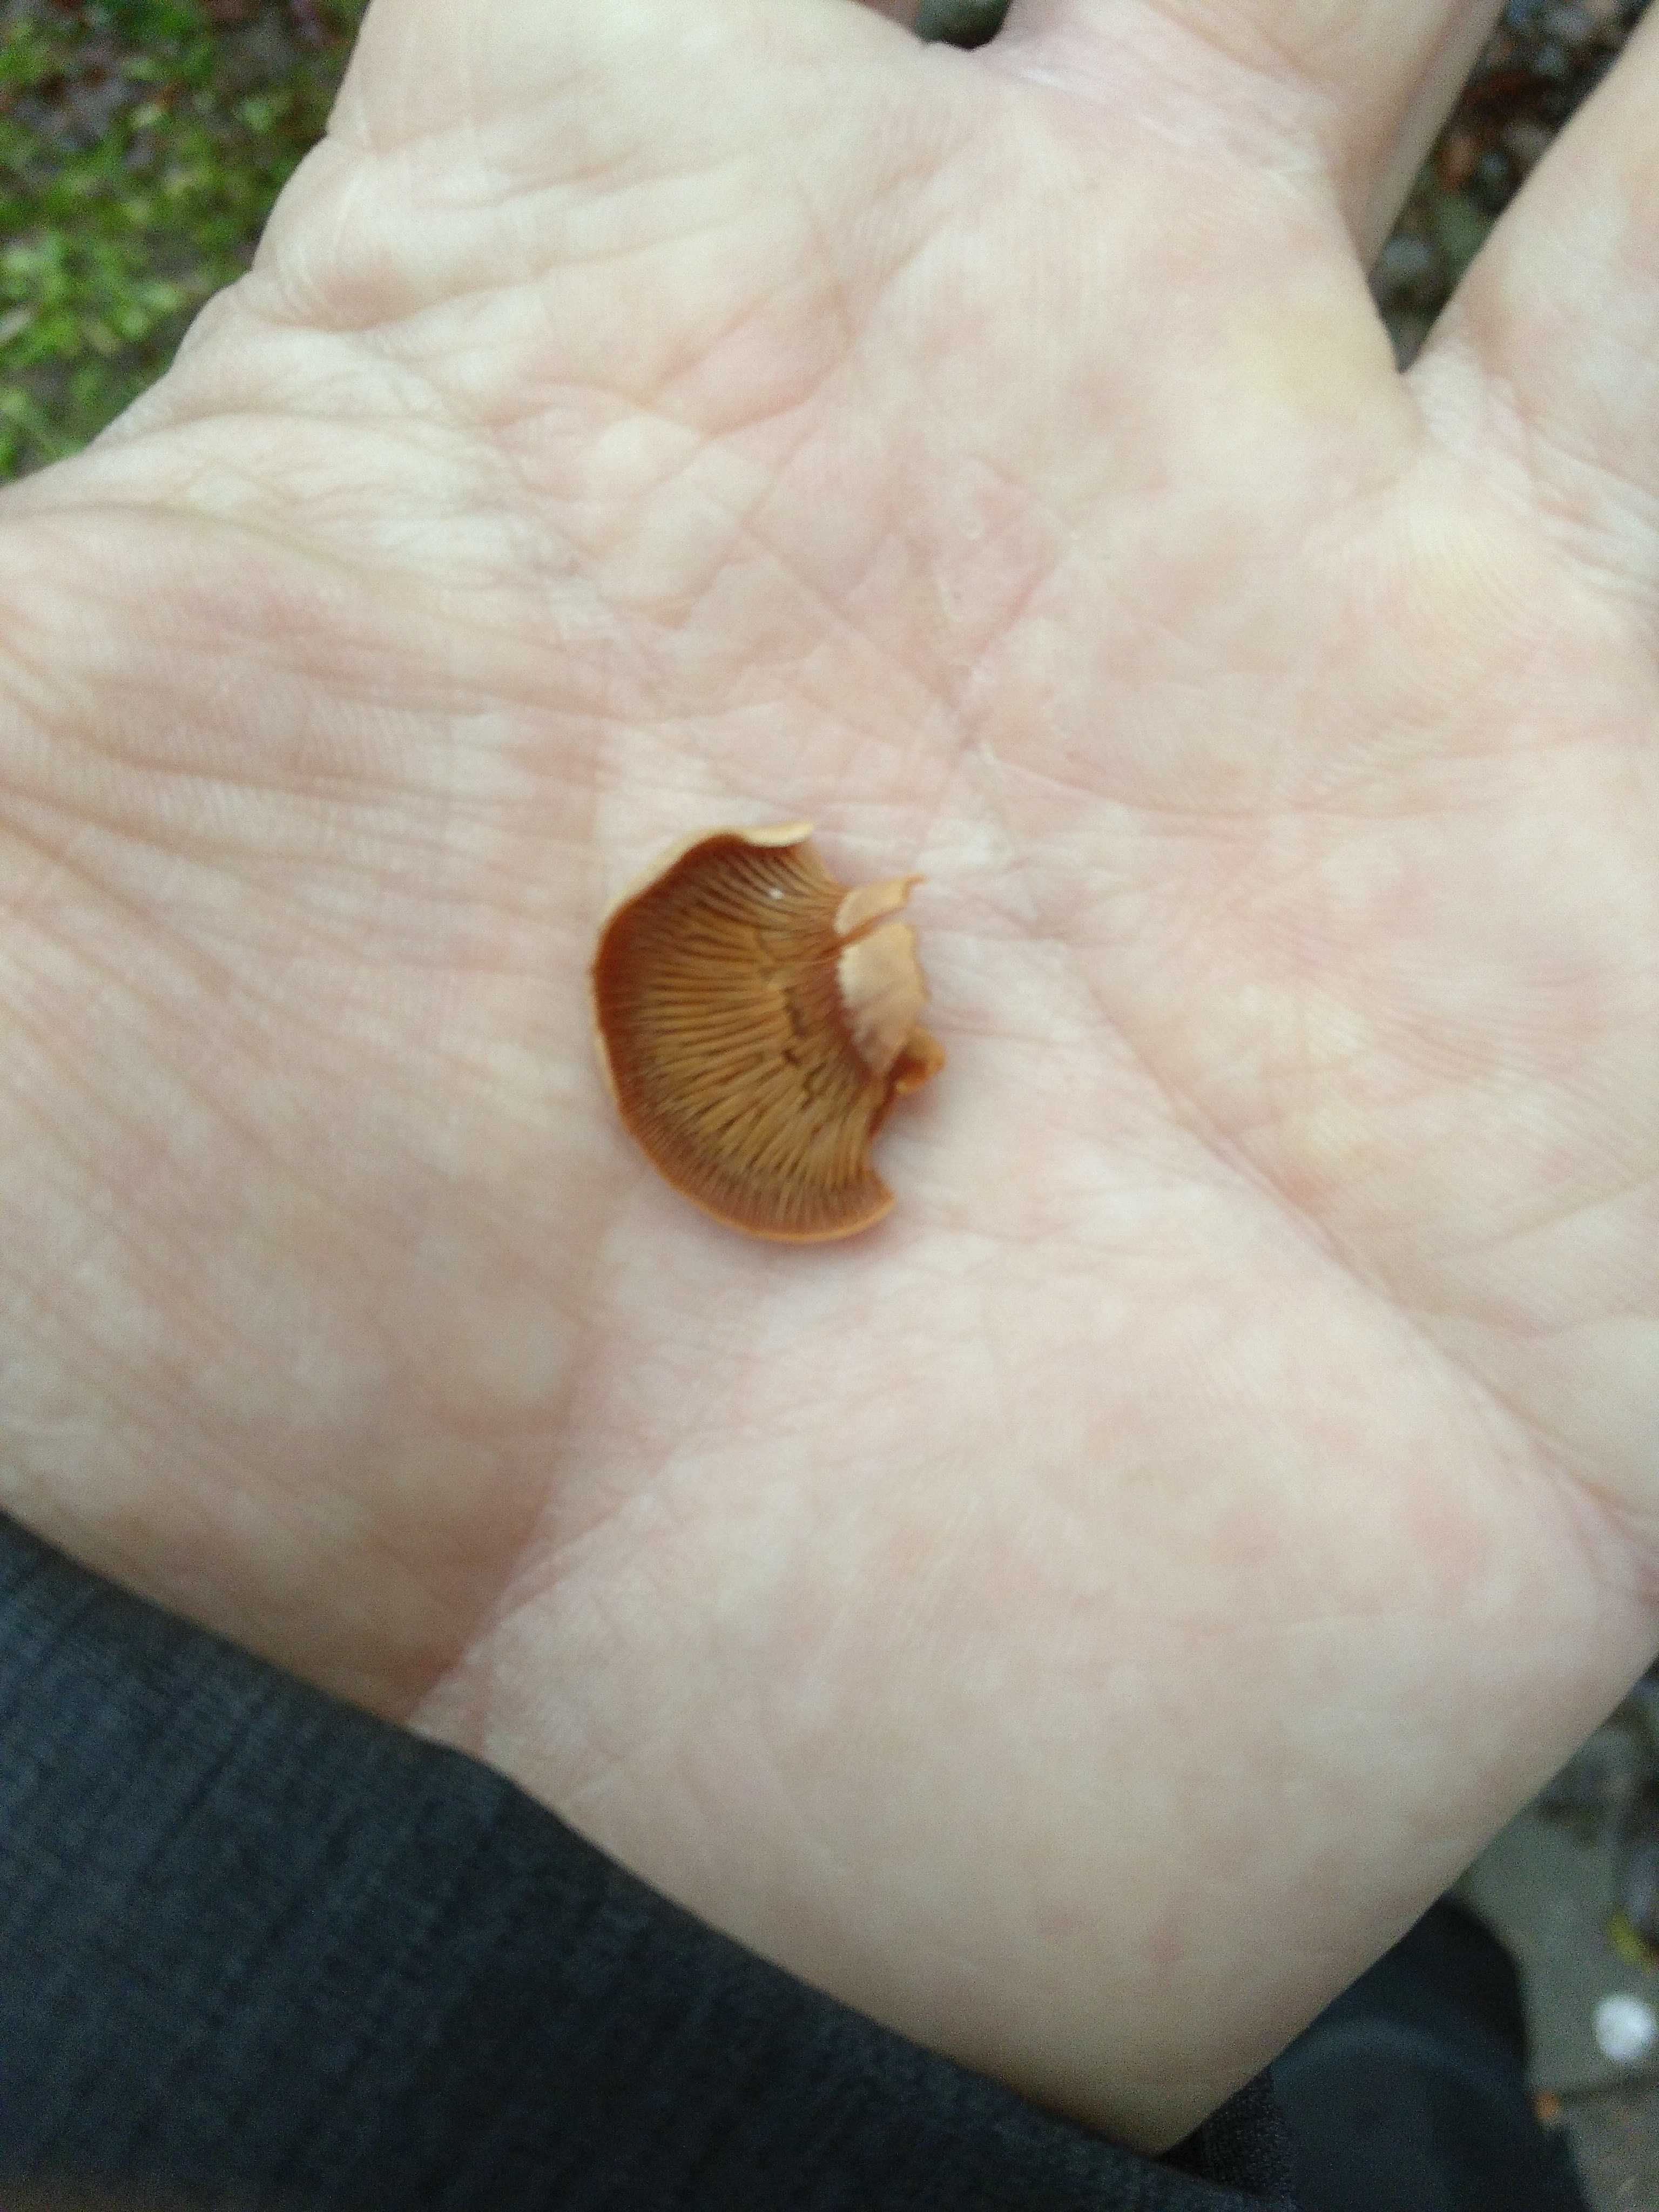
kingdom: Fungi
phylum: Basidiomycota
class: Agaricomycetes
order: Agaricales
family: Mycenaceae
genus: Panellus
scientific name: Panellus stipticus
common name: kliddet epaulethat
